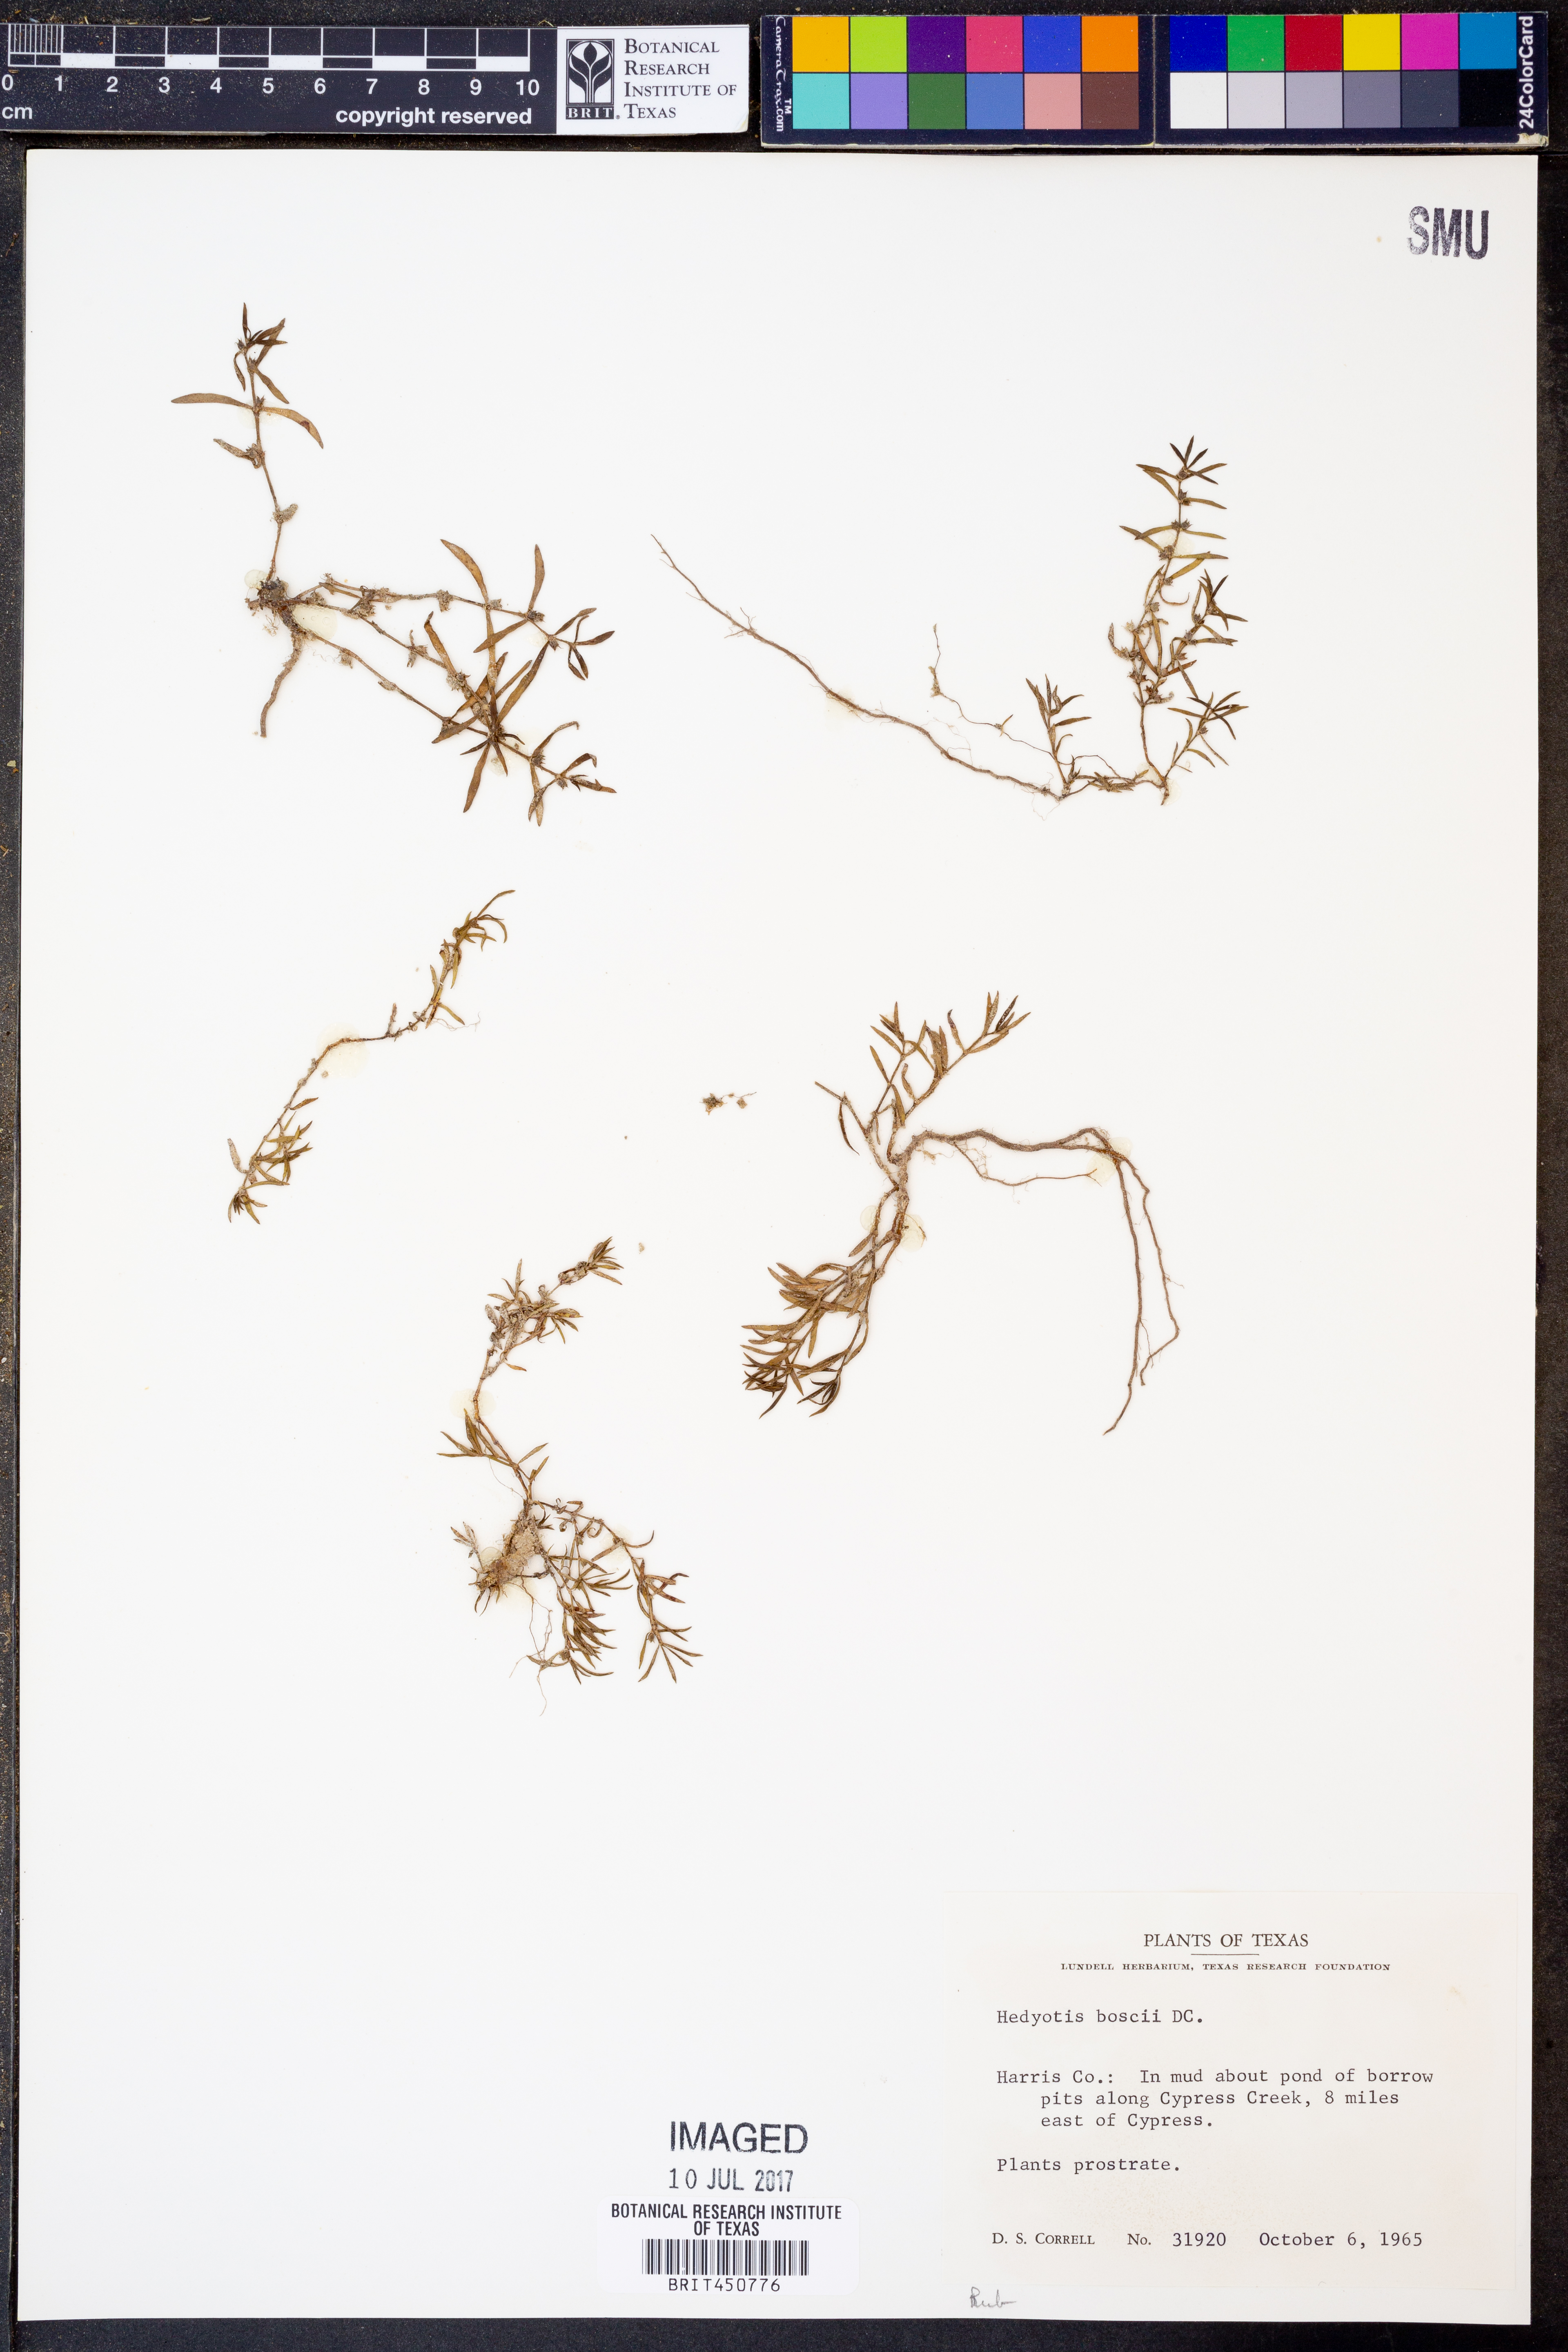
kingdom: Plantae
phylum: Tracheophyta
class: Magnoliopsida
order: Gentianales
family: Rubiaceae
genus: Oldenlandia
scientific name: Oldenlandia boscii
